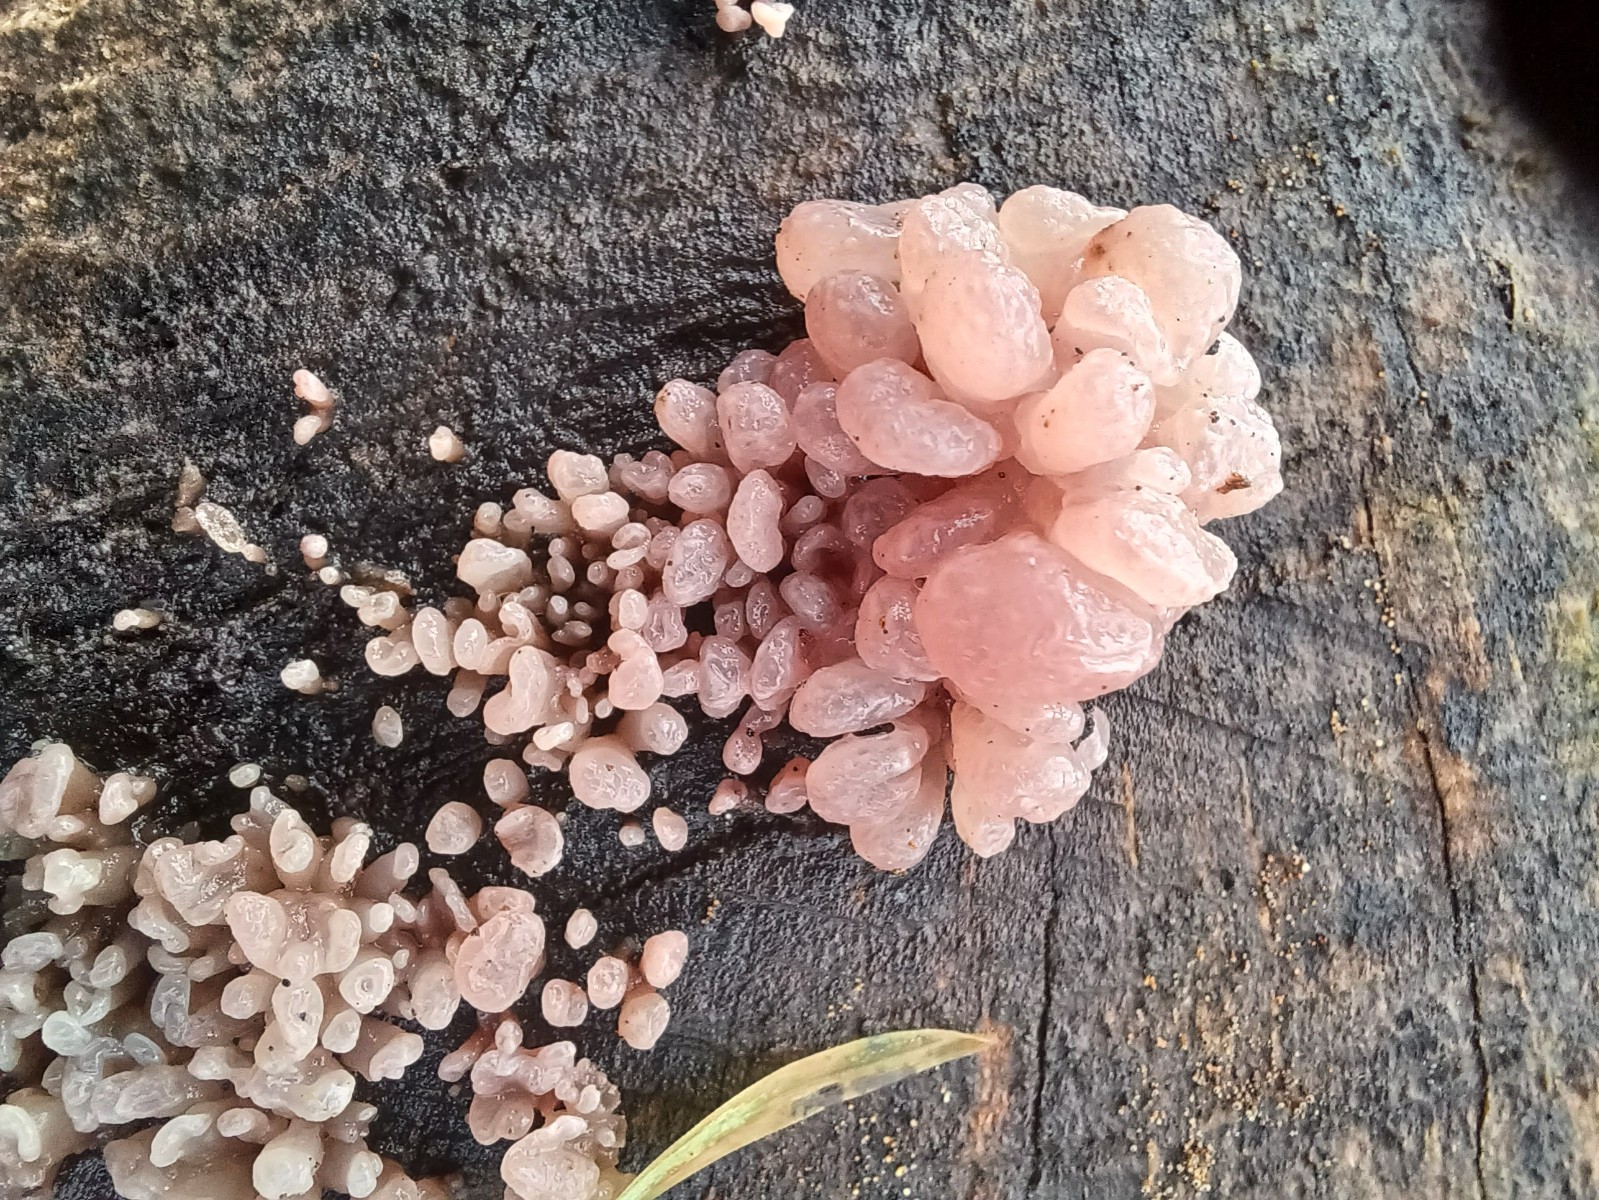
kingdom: Fungi
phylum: Ascomycota
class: Leotiomycetes
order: Helotiales
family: Gelatinodiscaceae
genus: Ascocoryne
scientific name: Ascocoryne sarcoides
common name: rødlilla sejskive
